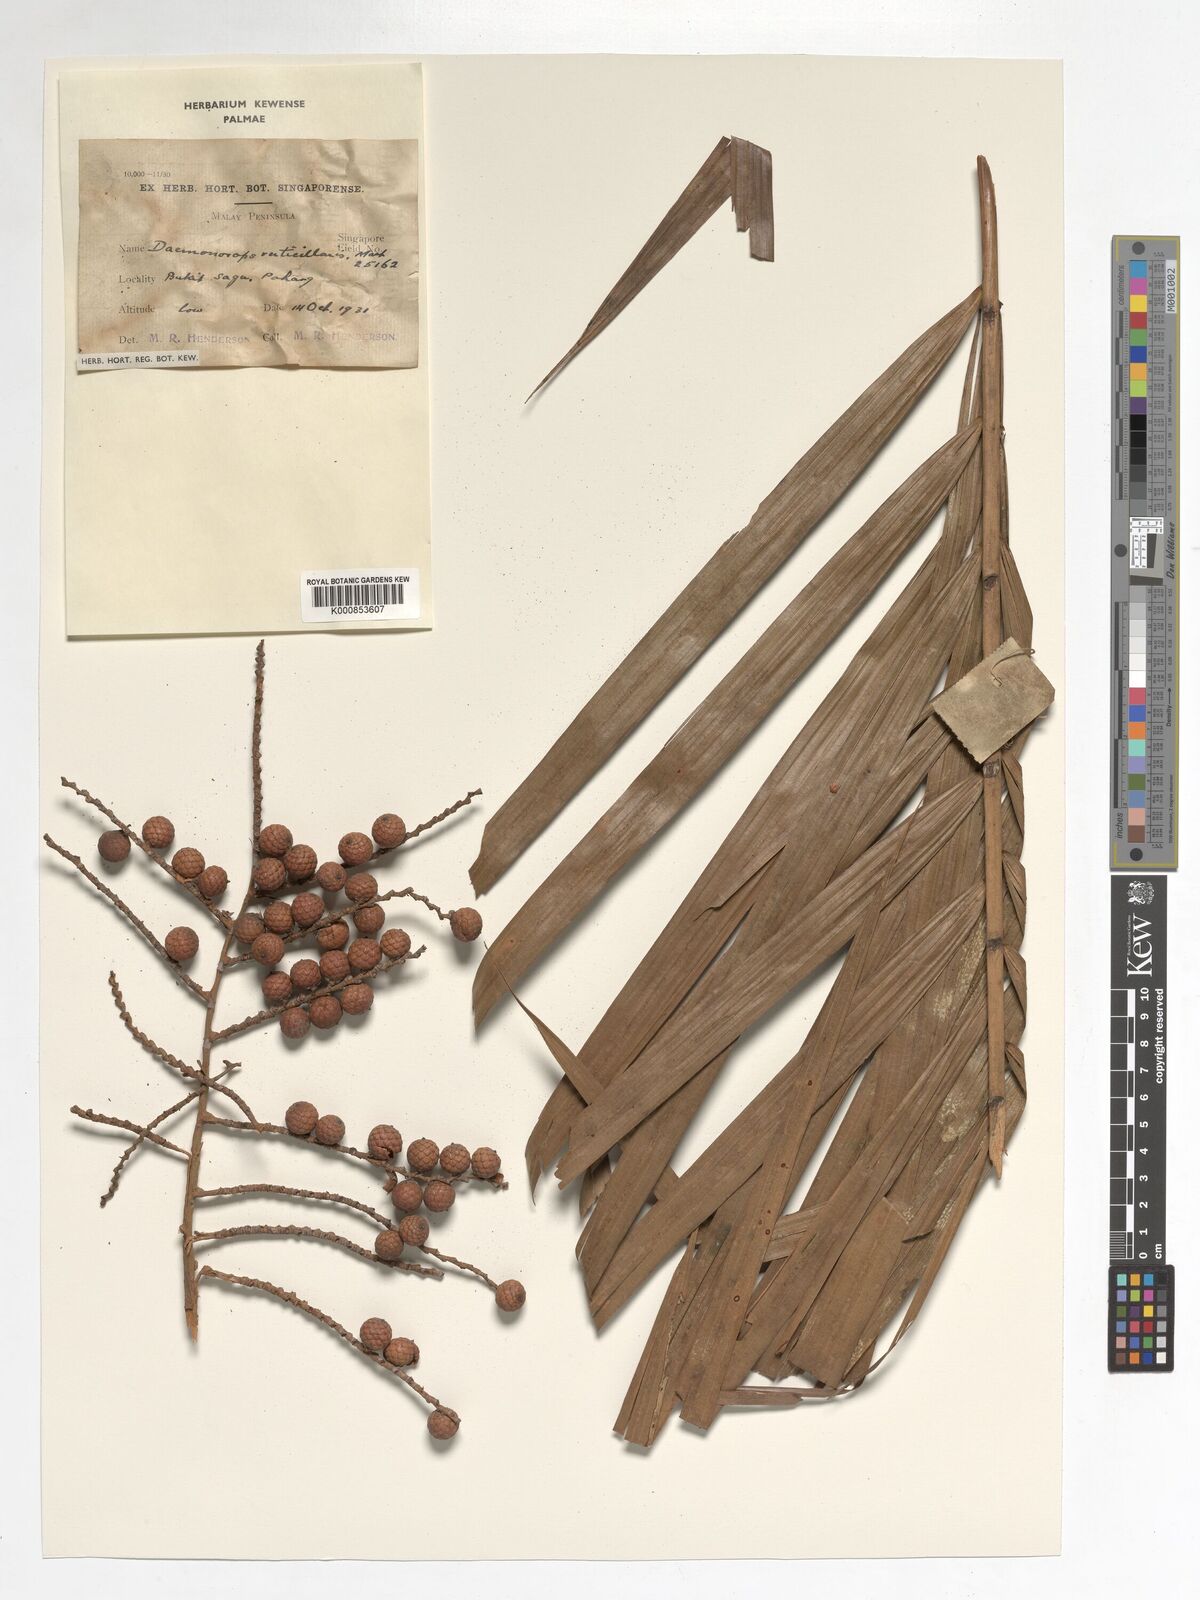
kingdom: Plantae
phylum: Tracheophyta
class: Liliopsida
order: Arecales
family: Arecaceae
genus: Calamus
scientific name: Calamus verticillaris
